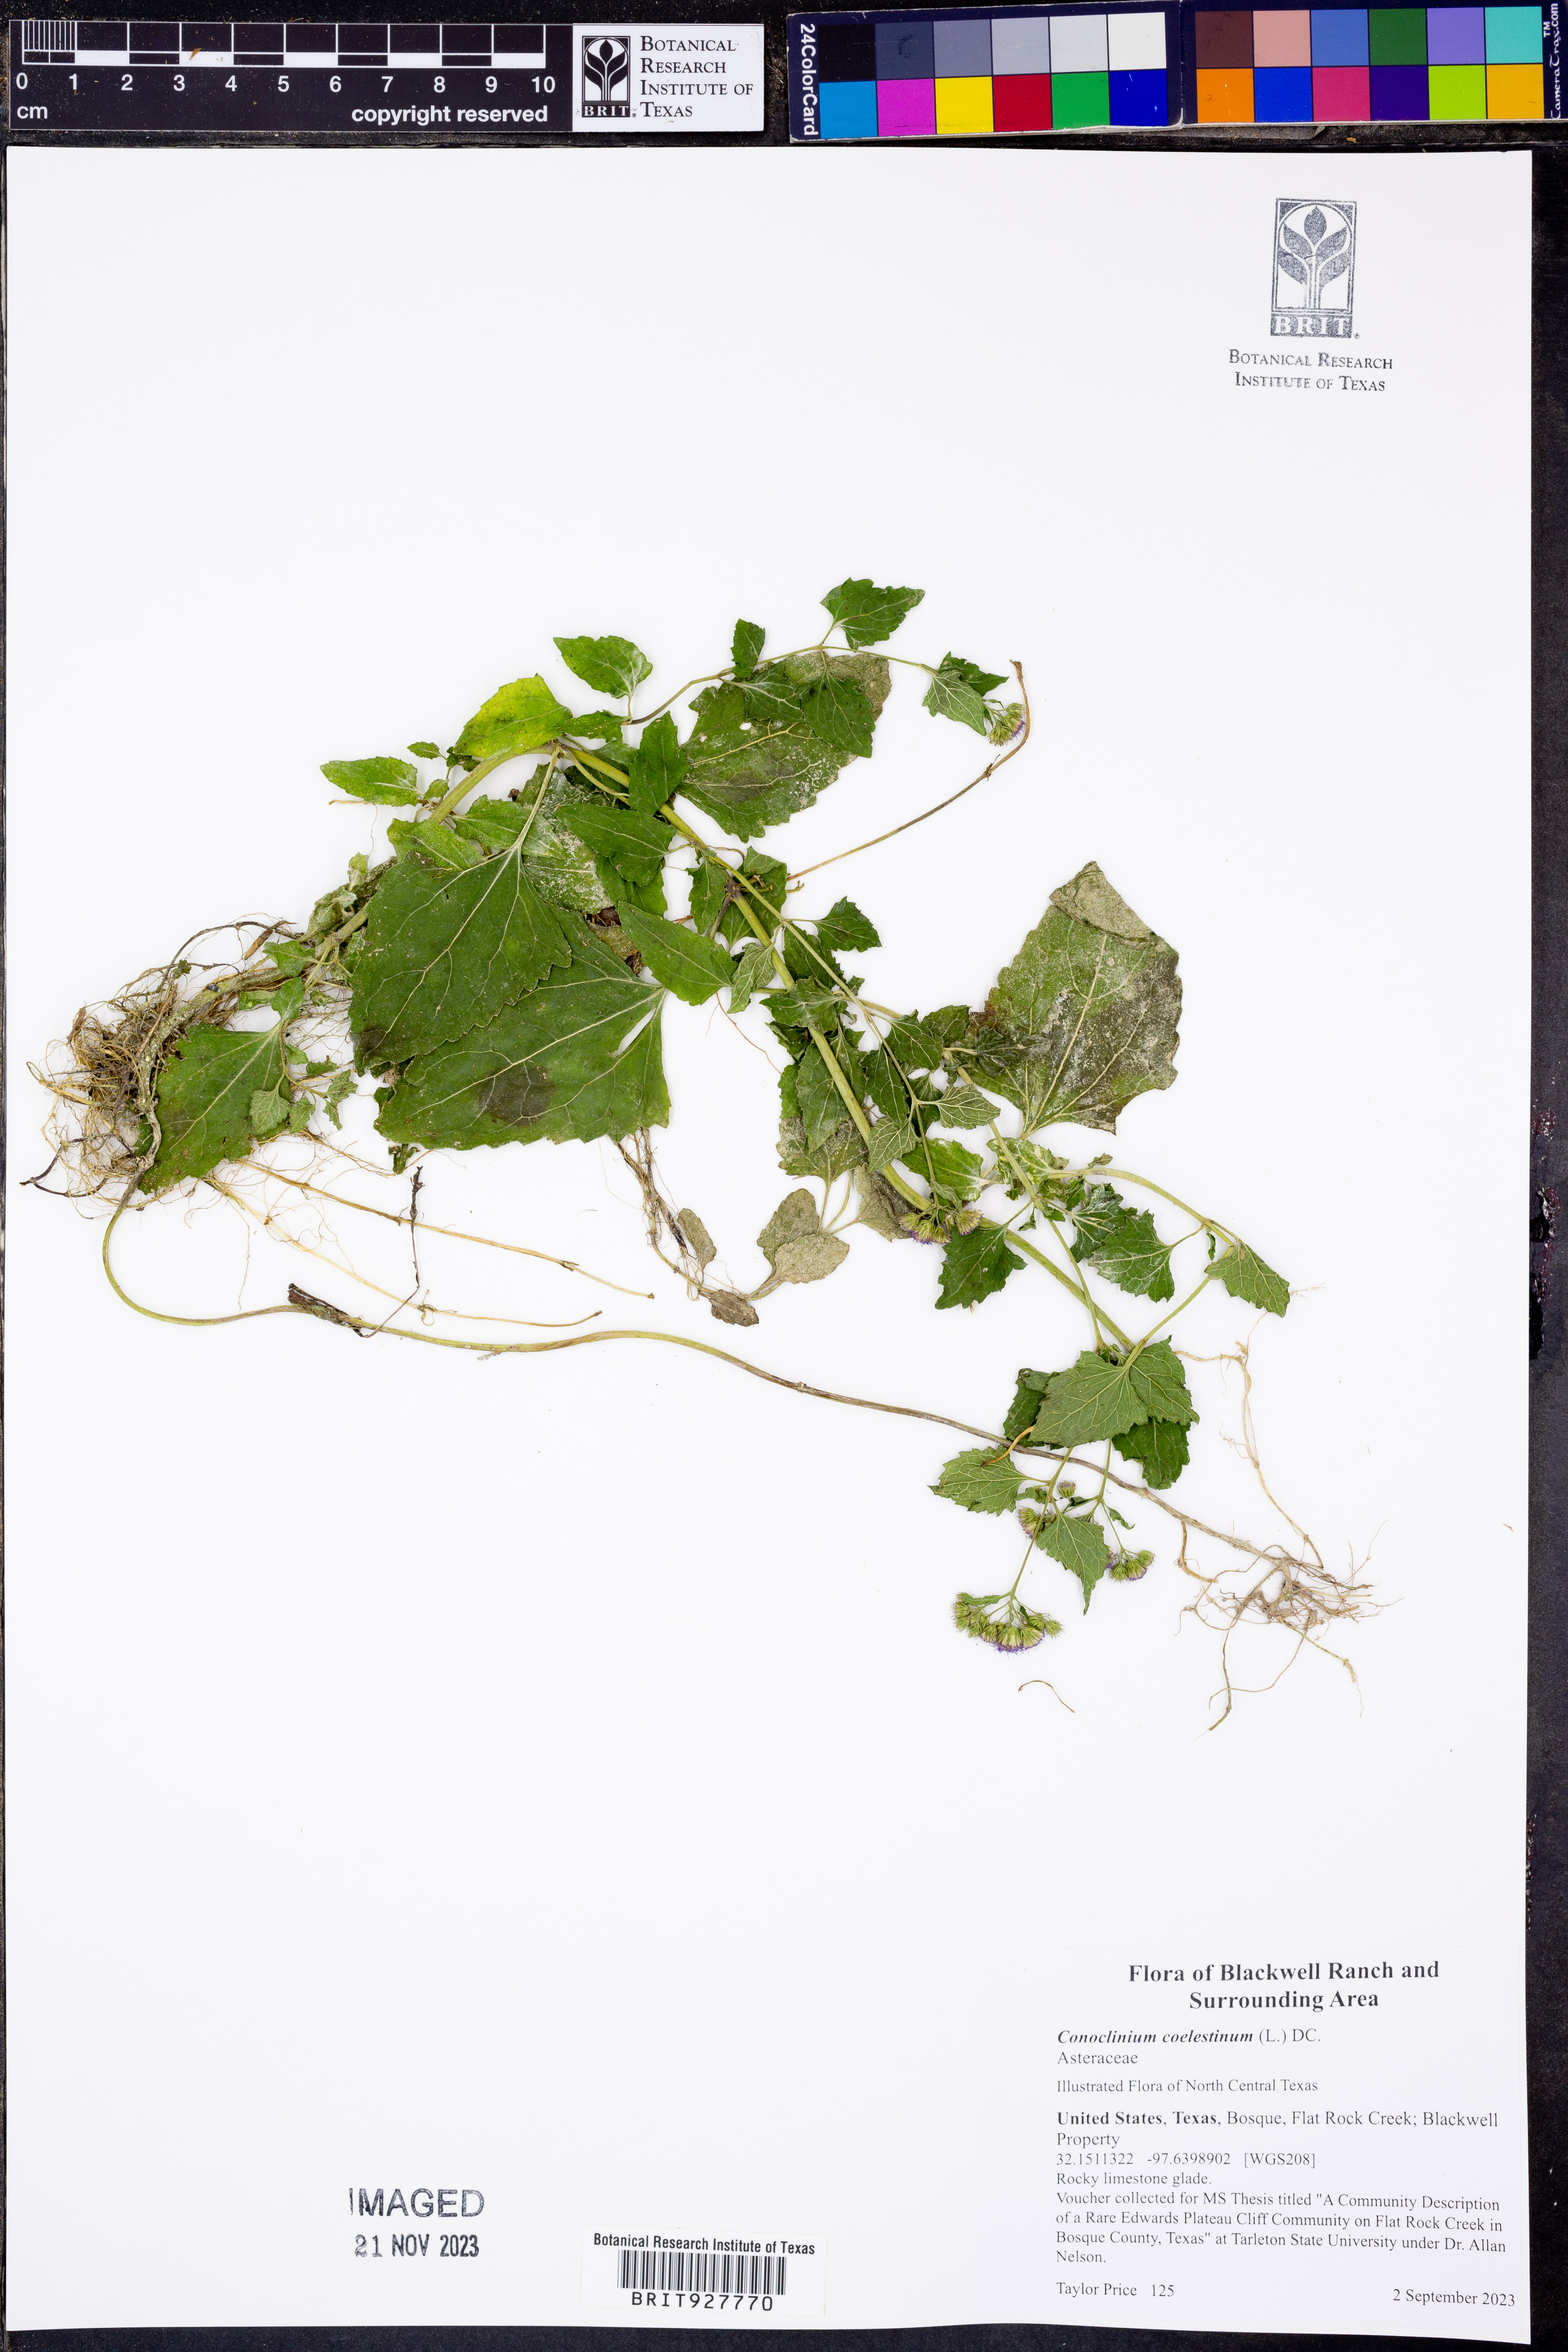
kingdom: Plantae
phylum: Tracheophyta
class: Magnoliopsida
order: Asterales
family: Asteraceae
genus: Conoclinium
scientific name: Conoclinium coelestinum
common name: Blue mistflower
